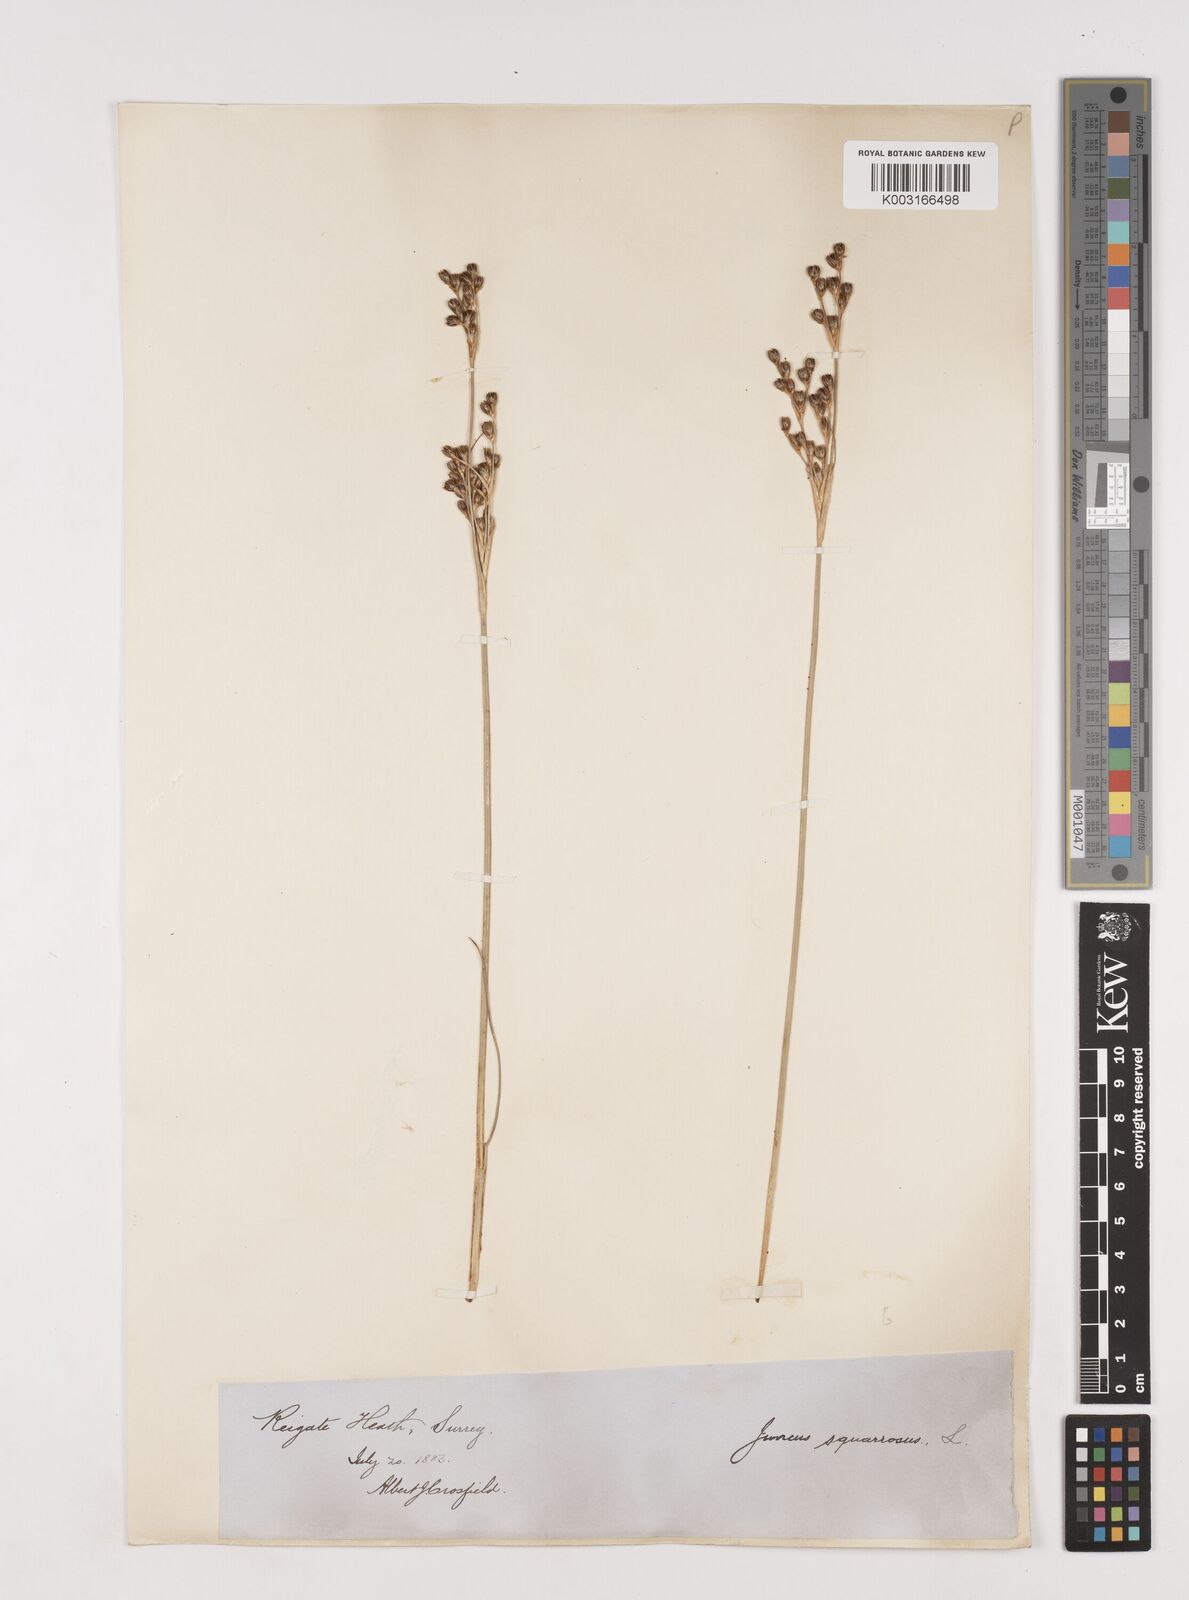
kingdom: Plantae
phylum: Tracheophyta
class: Liliopsida
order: Poales
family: Juncaceae
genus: Juncus
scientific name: Juncus squarrosus
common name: Heath rush
